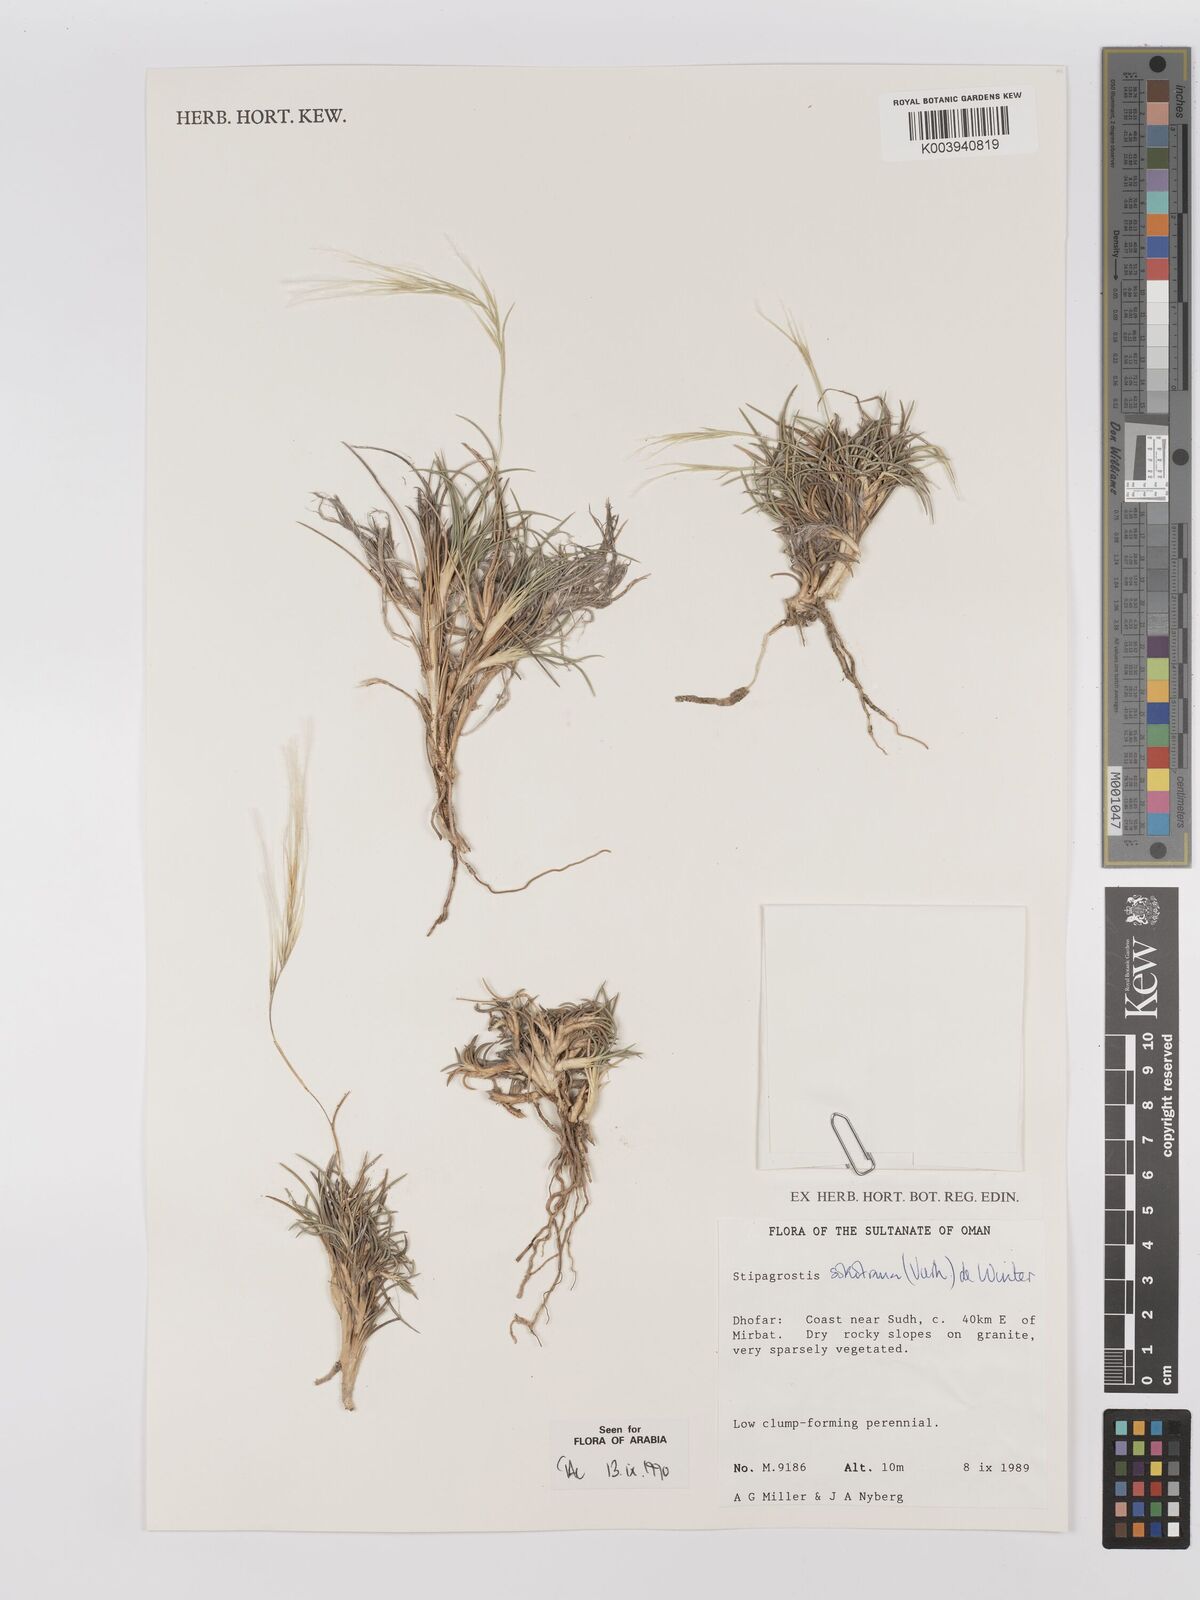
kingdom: Plantae
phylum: Tracheophyta
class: Liliopsida
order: Poales
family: Poaceae
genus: Stipagrostis
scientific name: Stipagrostis sokotrana
